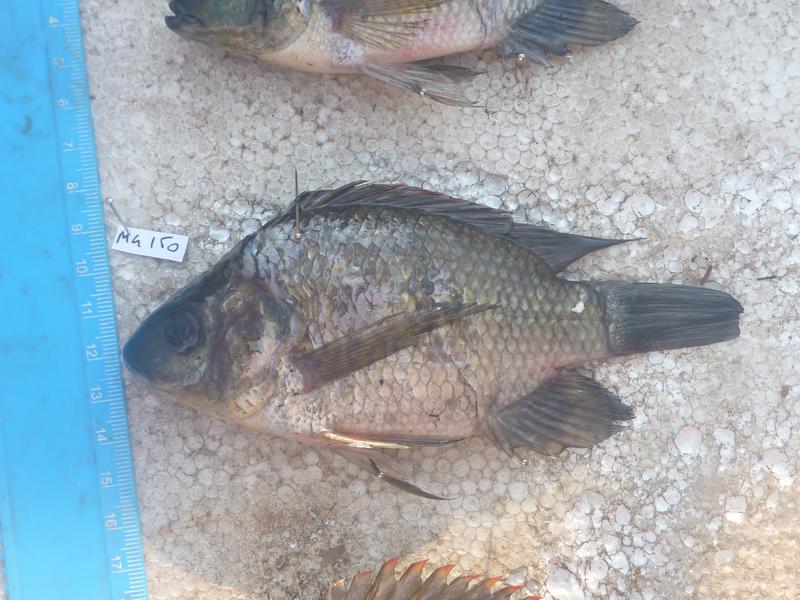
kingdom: Animalia
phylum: Chordata
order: Perciformes
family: Cichlidae
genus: Oreochromis
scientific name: Oreochromis upembae
